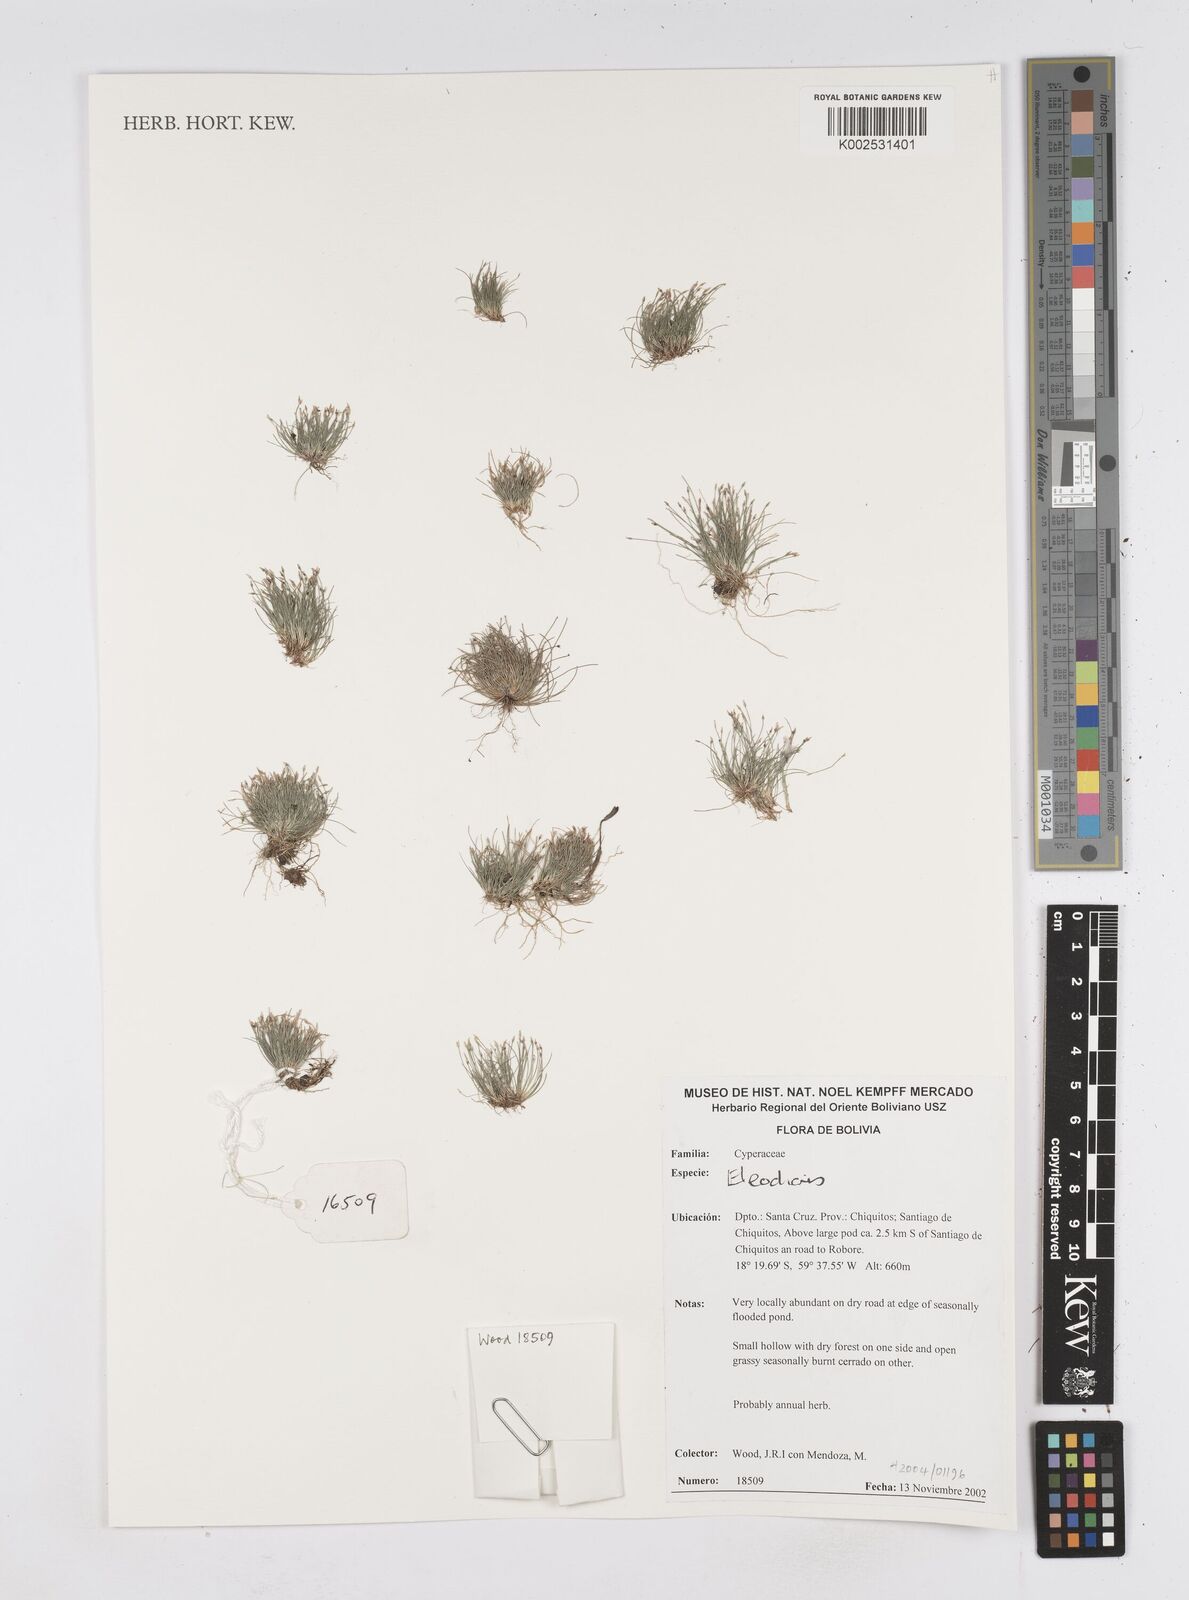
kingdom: Plantae
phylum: Tracheophyta
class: Liliopsida
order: Poales
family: Cyperaceae
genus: Eleocharis
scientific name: Eleocharis
